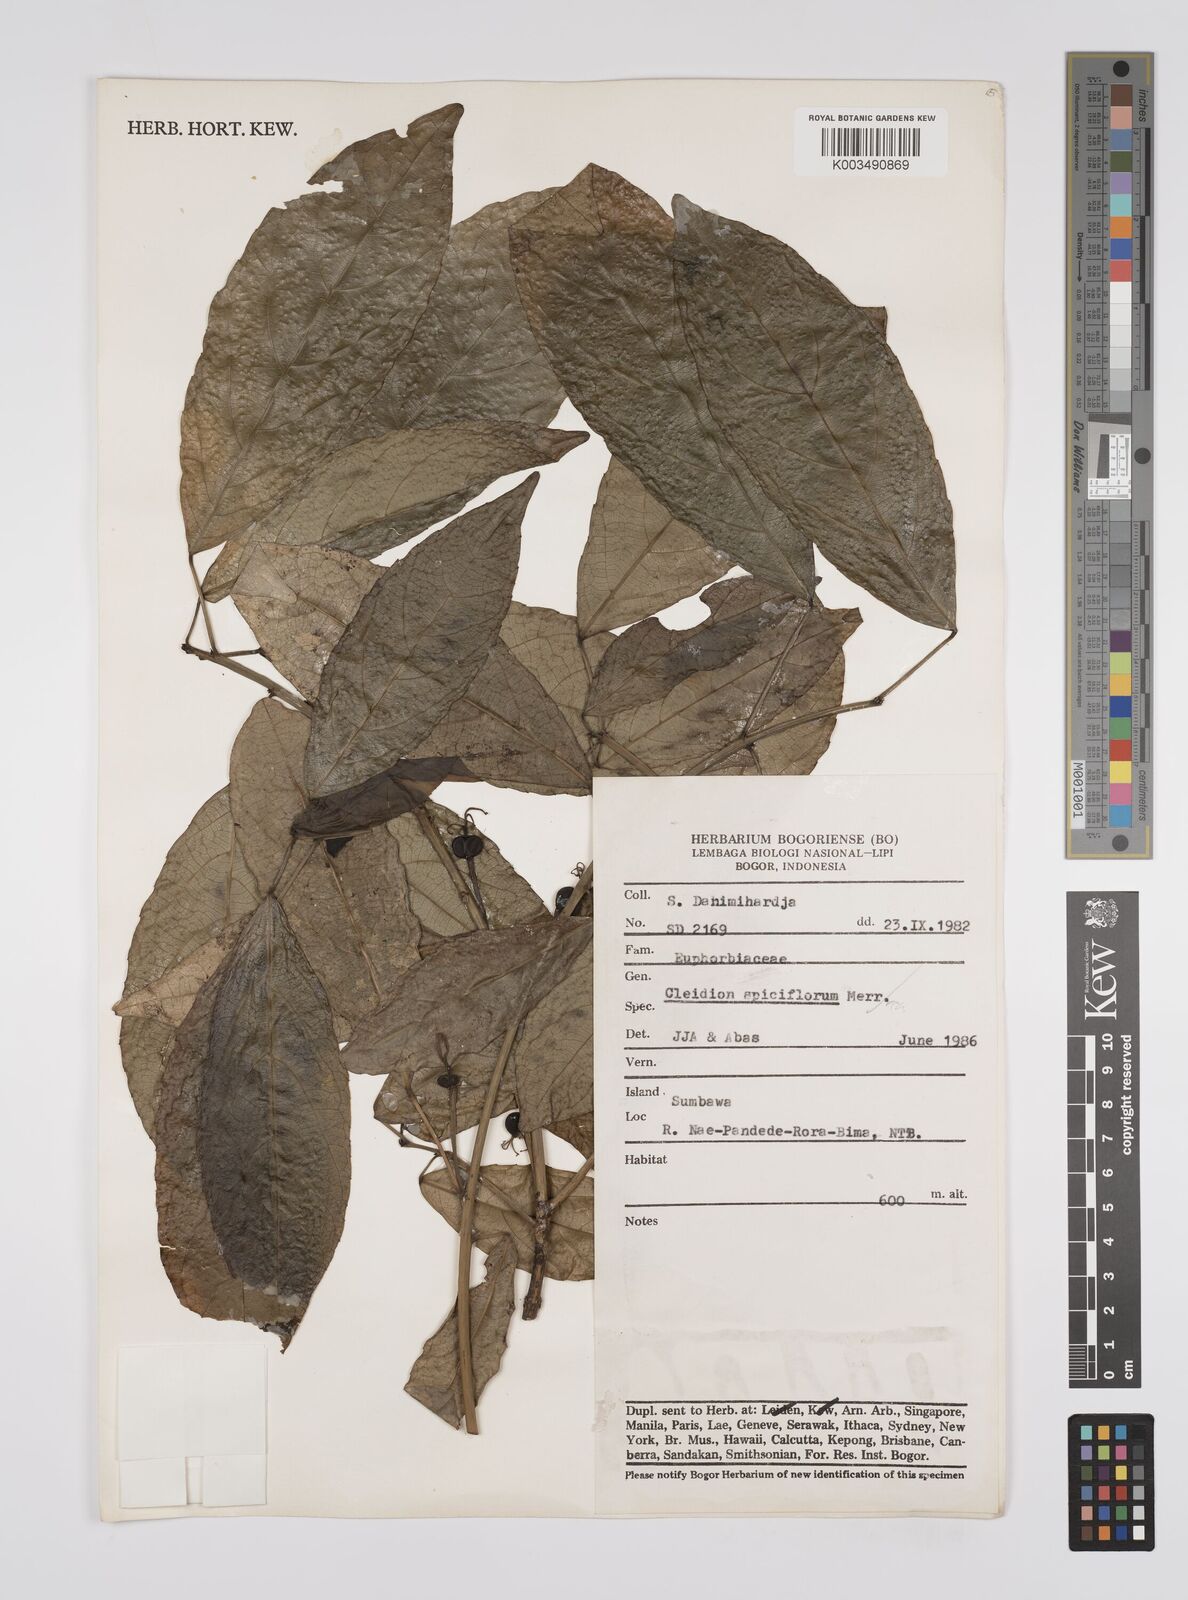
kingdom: Plantae
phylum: Tracheophyta
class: Magnoliopsida
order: Malpighiales
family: Euphorbiaceae
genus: Acalypha
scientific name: Acalypha spiciflora
